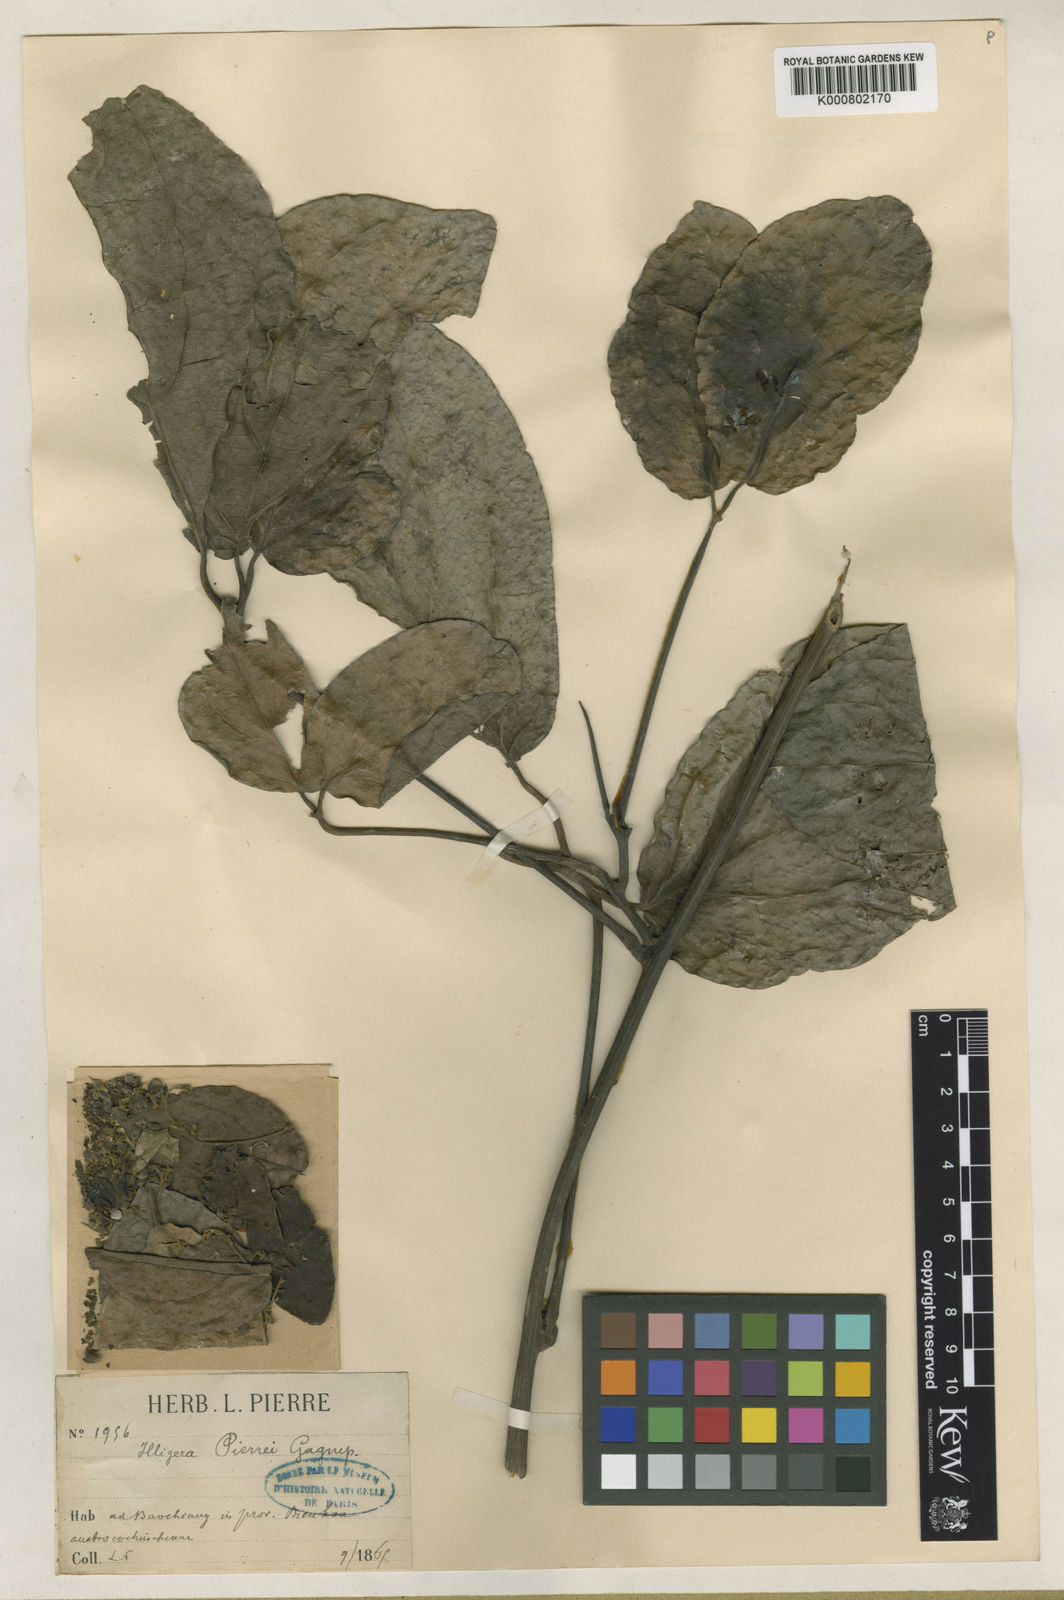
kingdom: Plantae
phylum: Tracheophyta
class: Magnoliopsida
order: Laurales
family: Hernandiaceae
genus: Illigera
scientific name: Illigera pierrei
